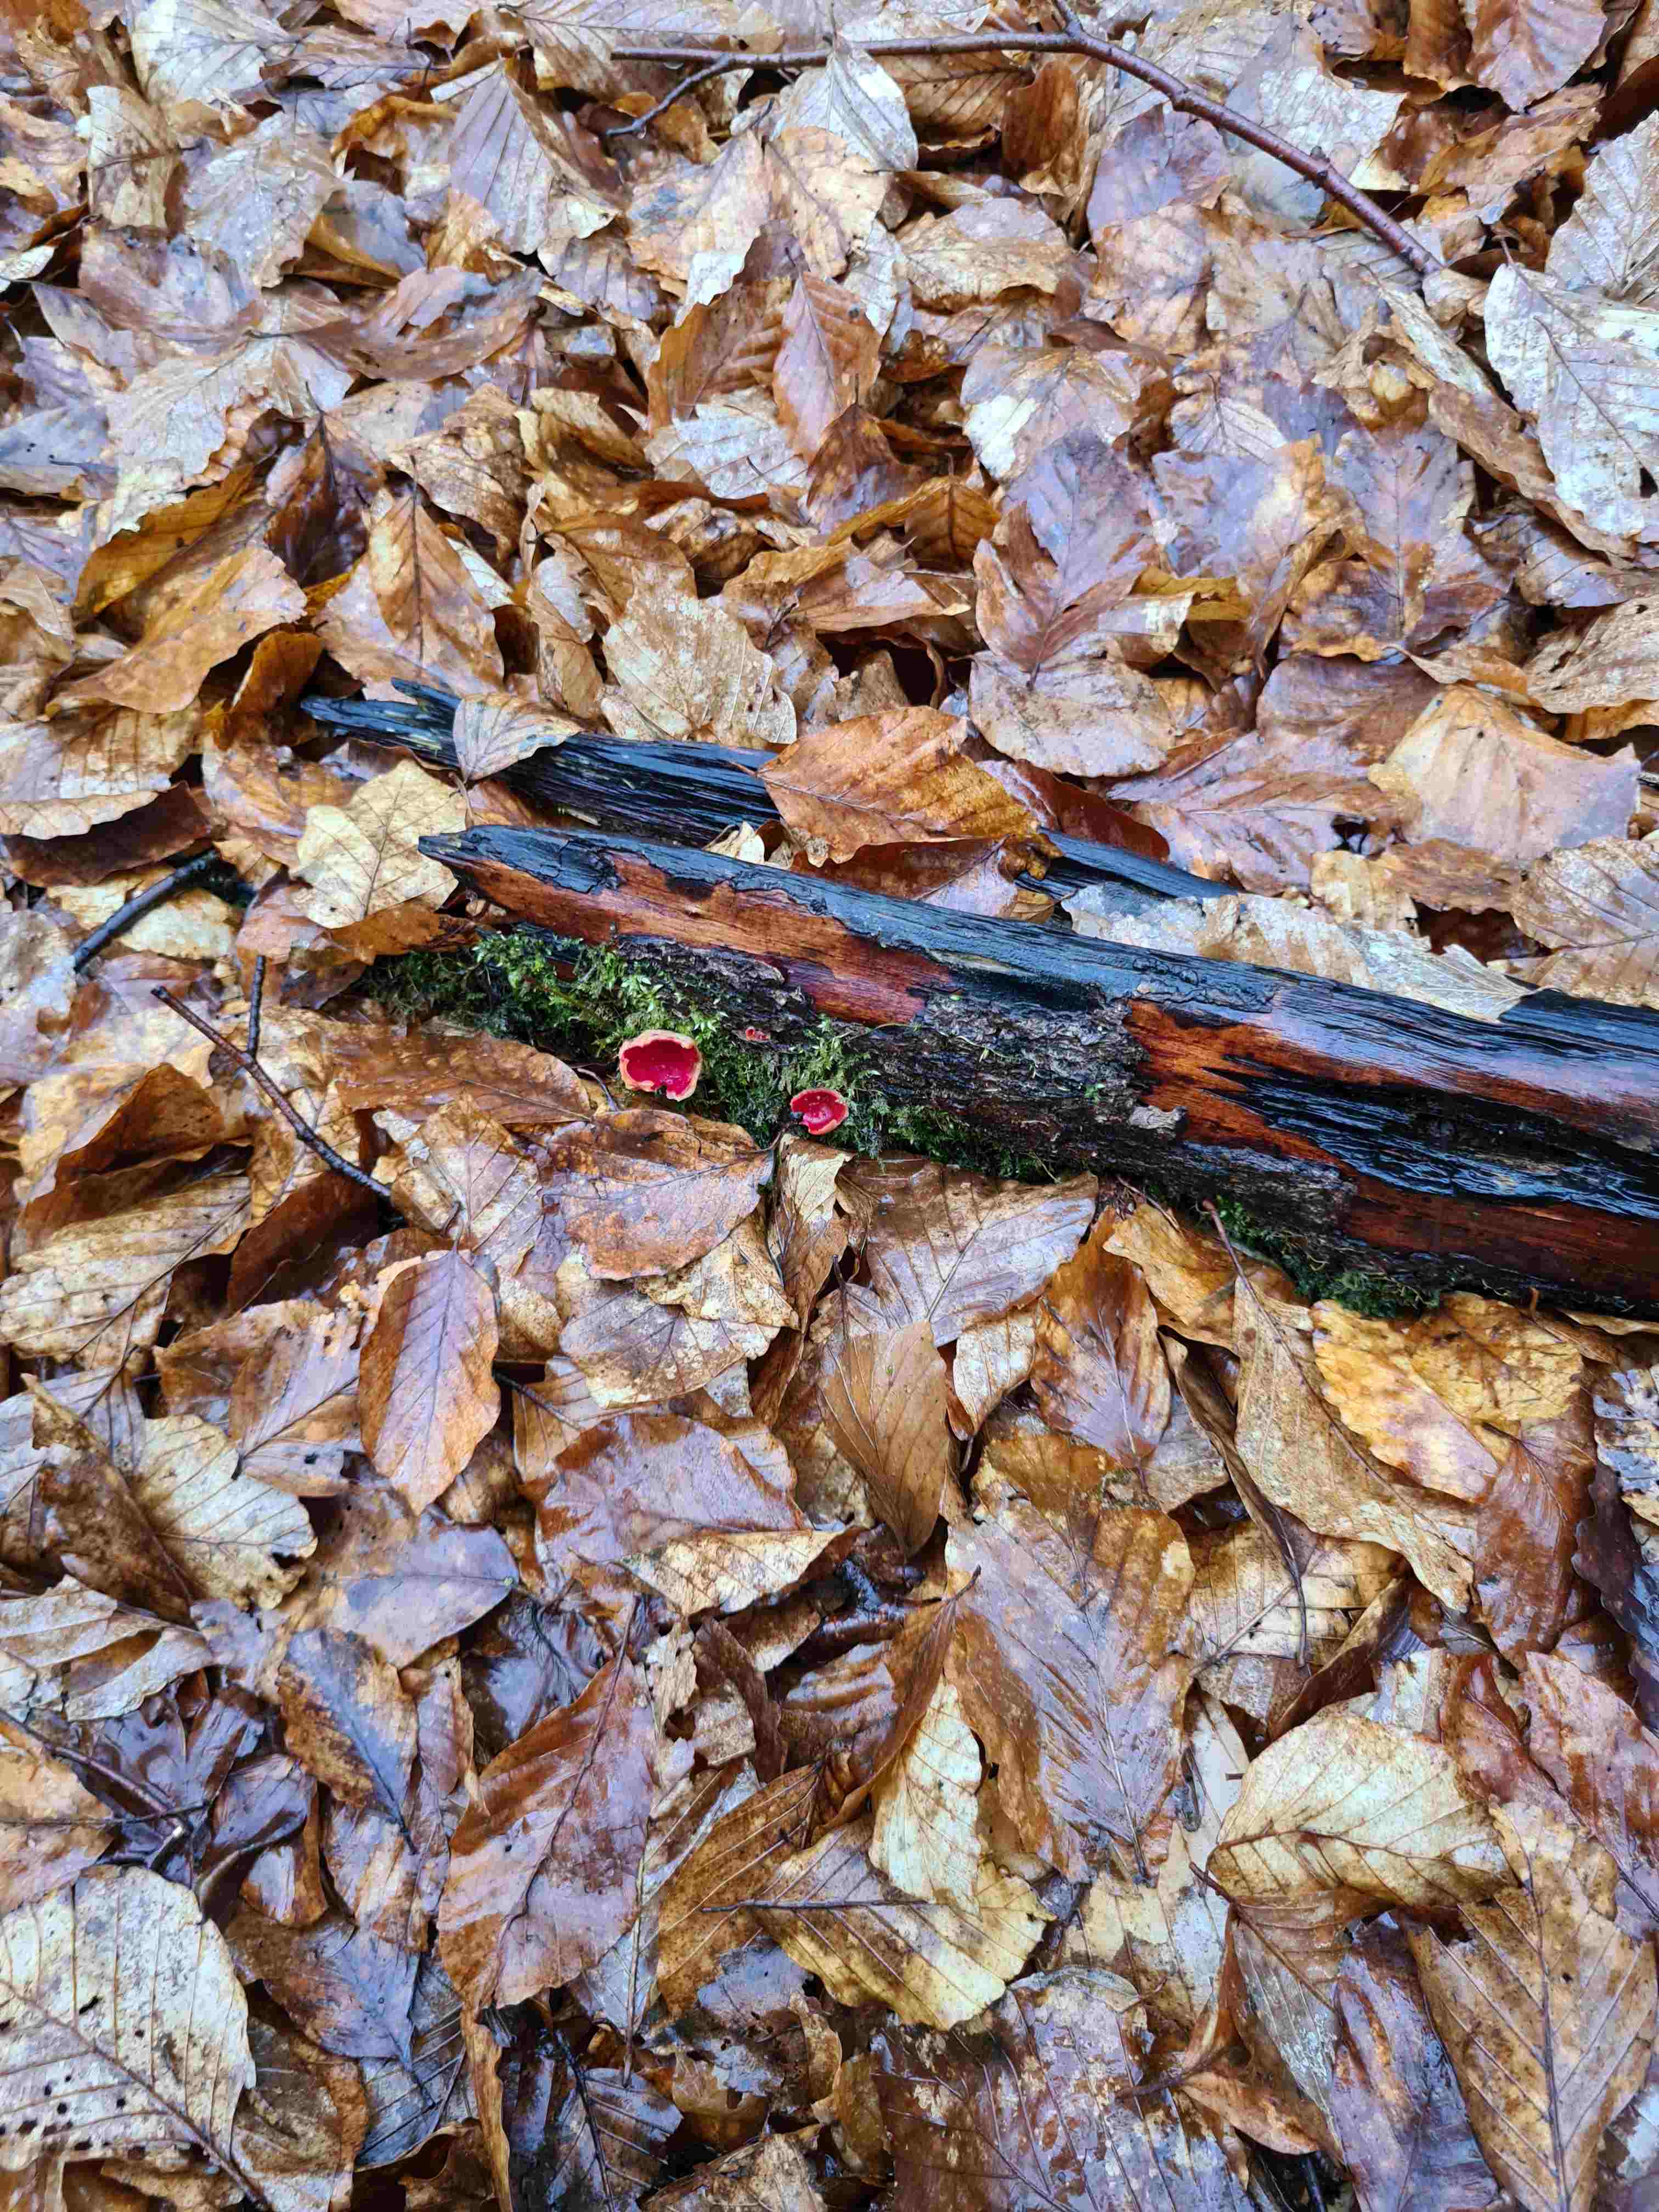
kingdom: Fungi
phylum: Ascomycota
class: Pezizomycetes
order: Pezizales
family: Sarcoscyphaceae
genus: Sarcoscypha
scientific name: Sarcoscypha
